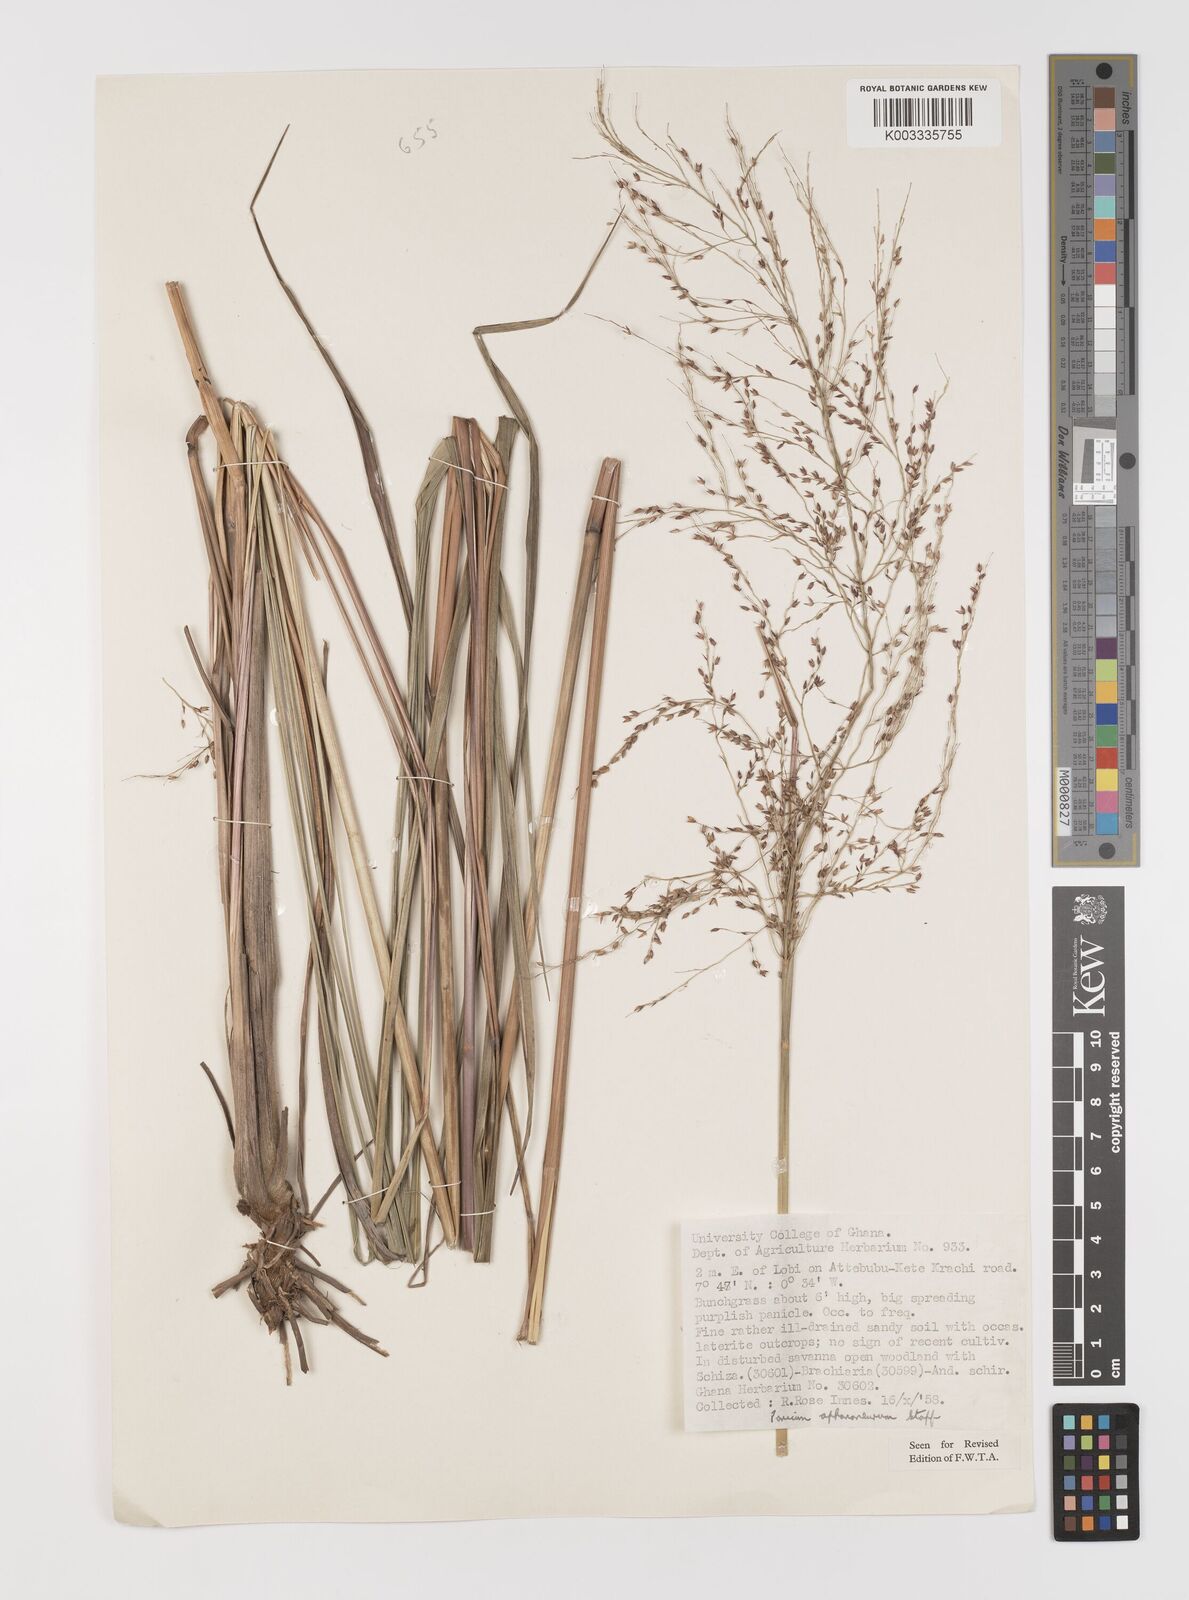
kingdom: Plantae
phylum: Tracheophyta
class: Liliopsida
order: Poales
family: Poaceae
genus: Panicum
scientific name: Panicum fluviicola
